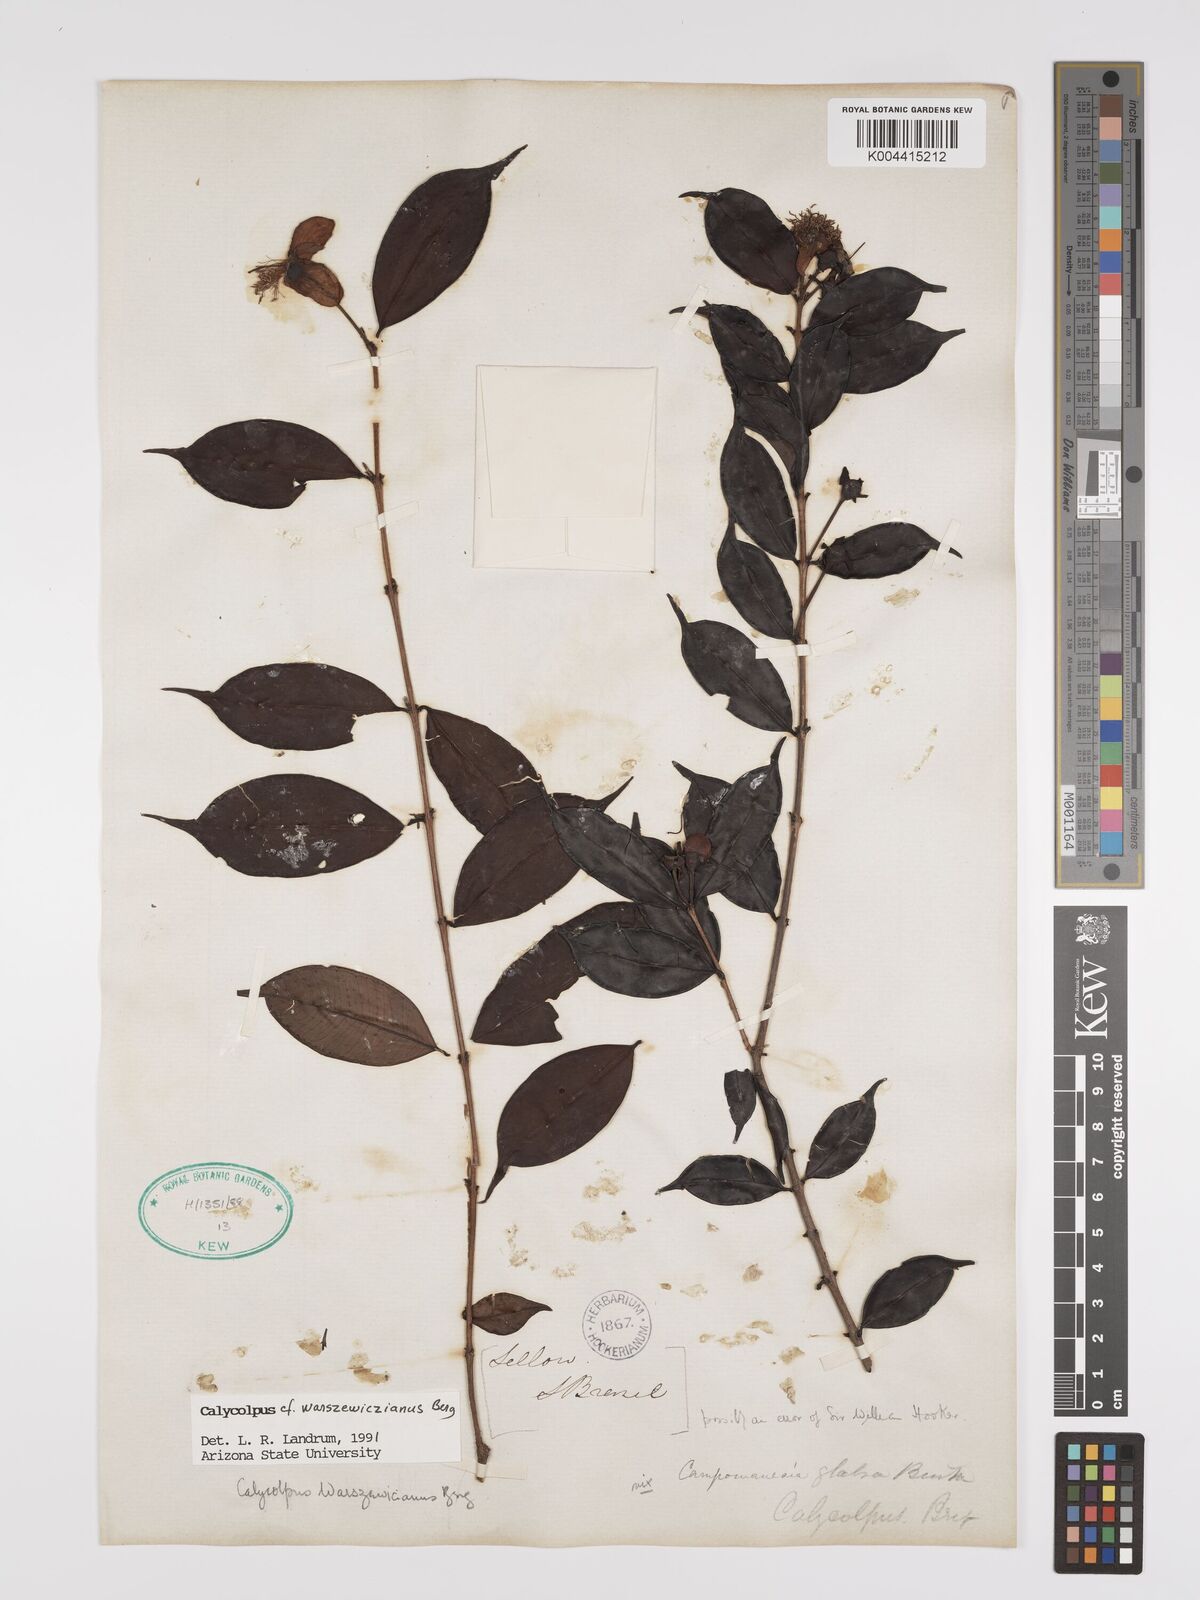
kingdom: Plantae
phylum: Tracheophyta
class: Magnoliopsida
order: Myrtales
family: Myrtaceae
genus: Calycolpus
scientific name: Calycolpus warszewiczianus
